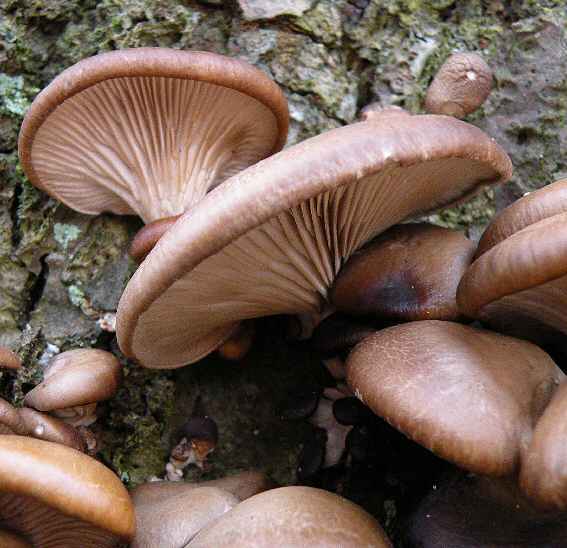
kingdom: Fungi
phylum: Basidiomycota
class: Agaricomycetes
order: Agaricales
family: Pleurotaceae
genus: Pleurotus
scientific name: Pleurotus ostreatus
